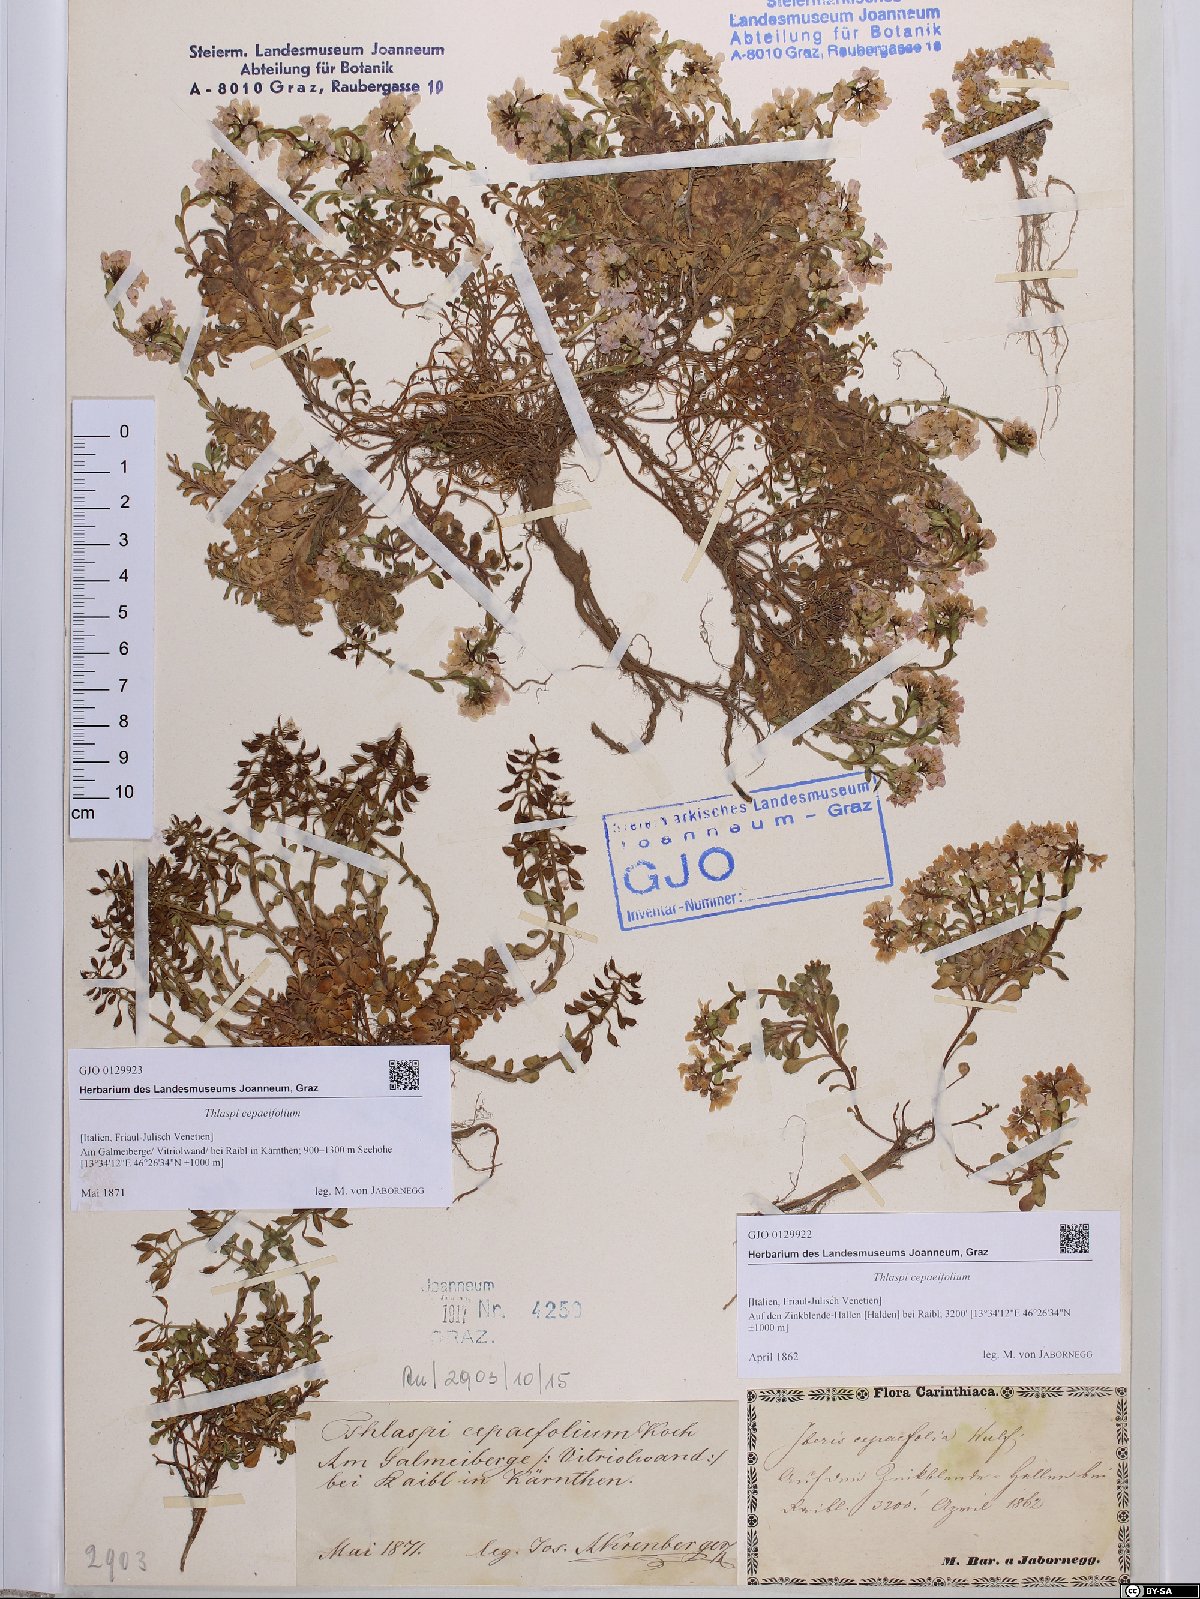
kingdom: Plantae
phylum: Tracheophyta
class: Magnoliopsida
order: Brassicales
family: Brassicaceae
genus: Noccaea
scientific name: Noccaea cepaeifolia
